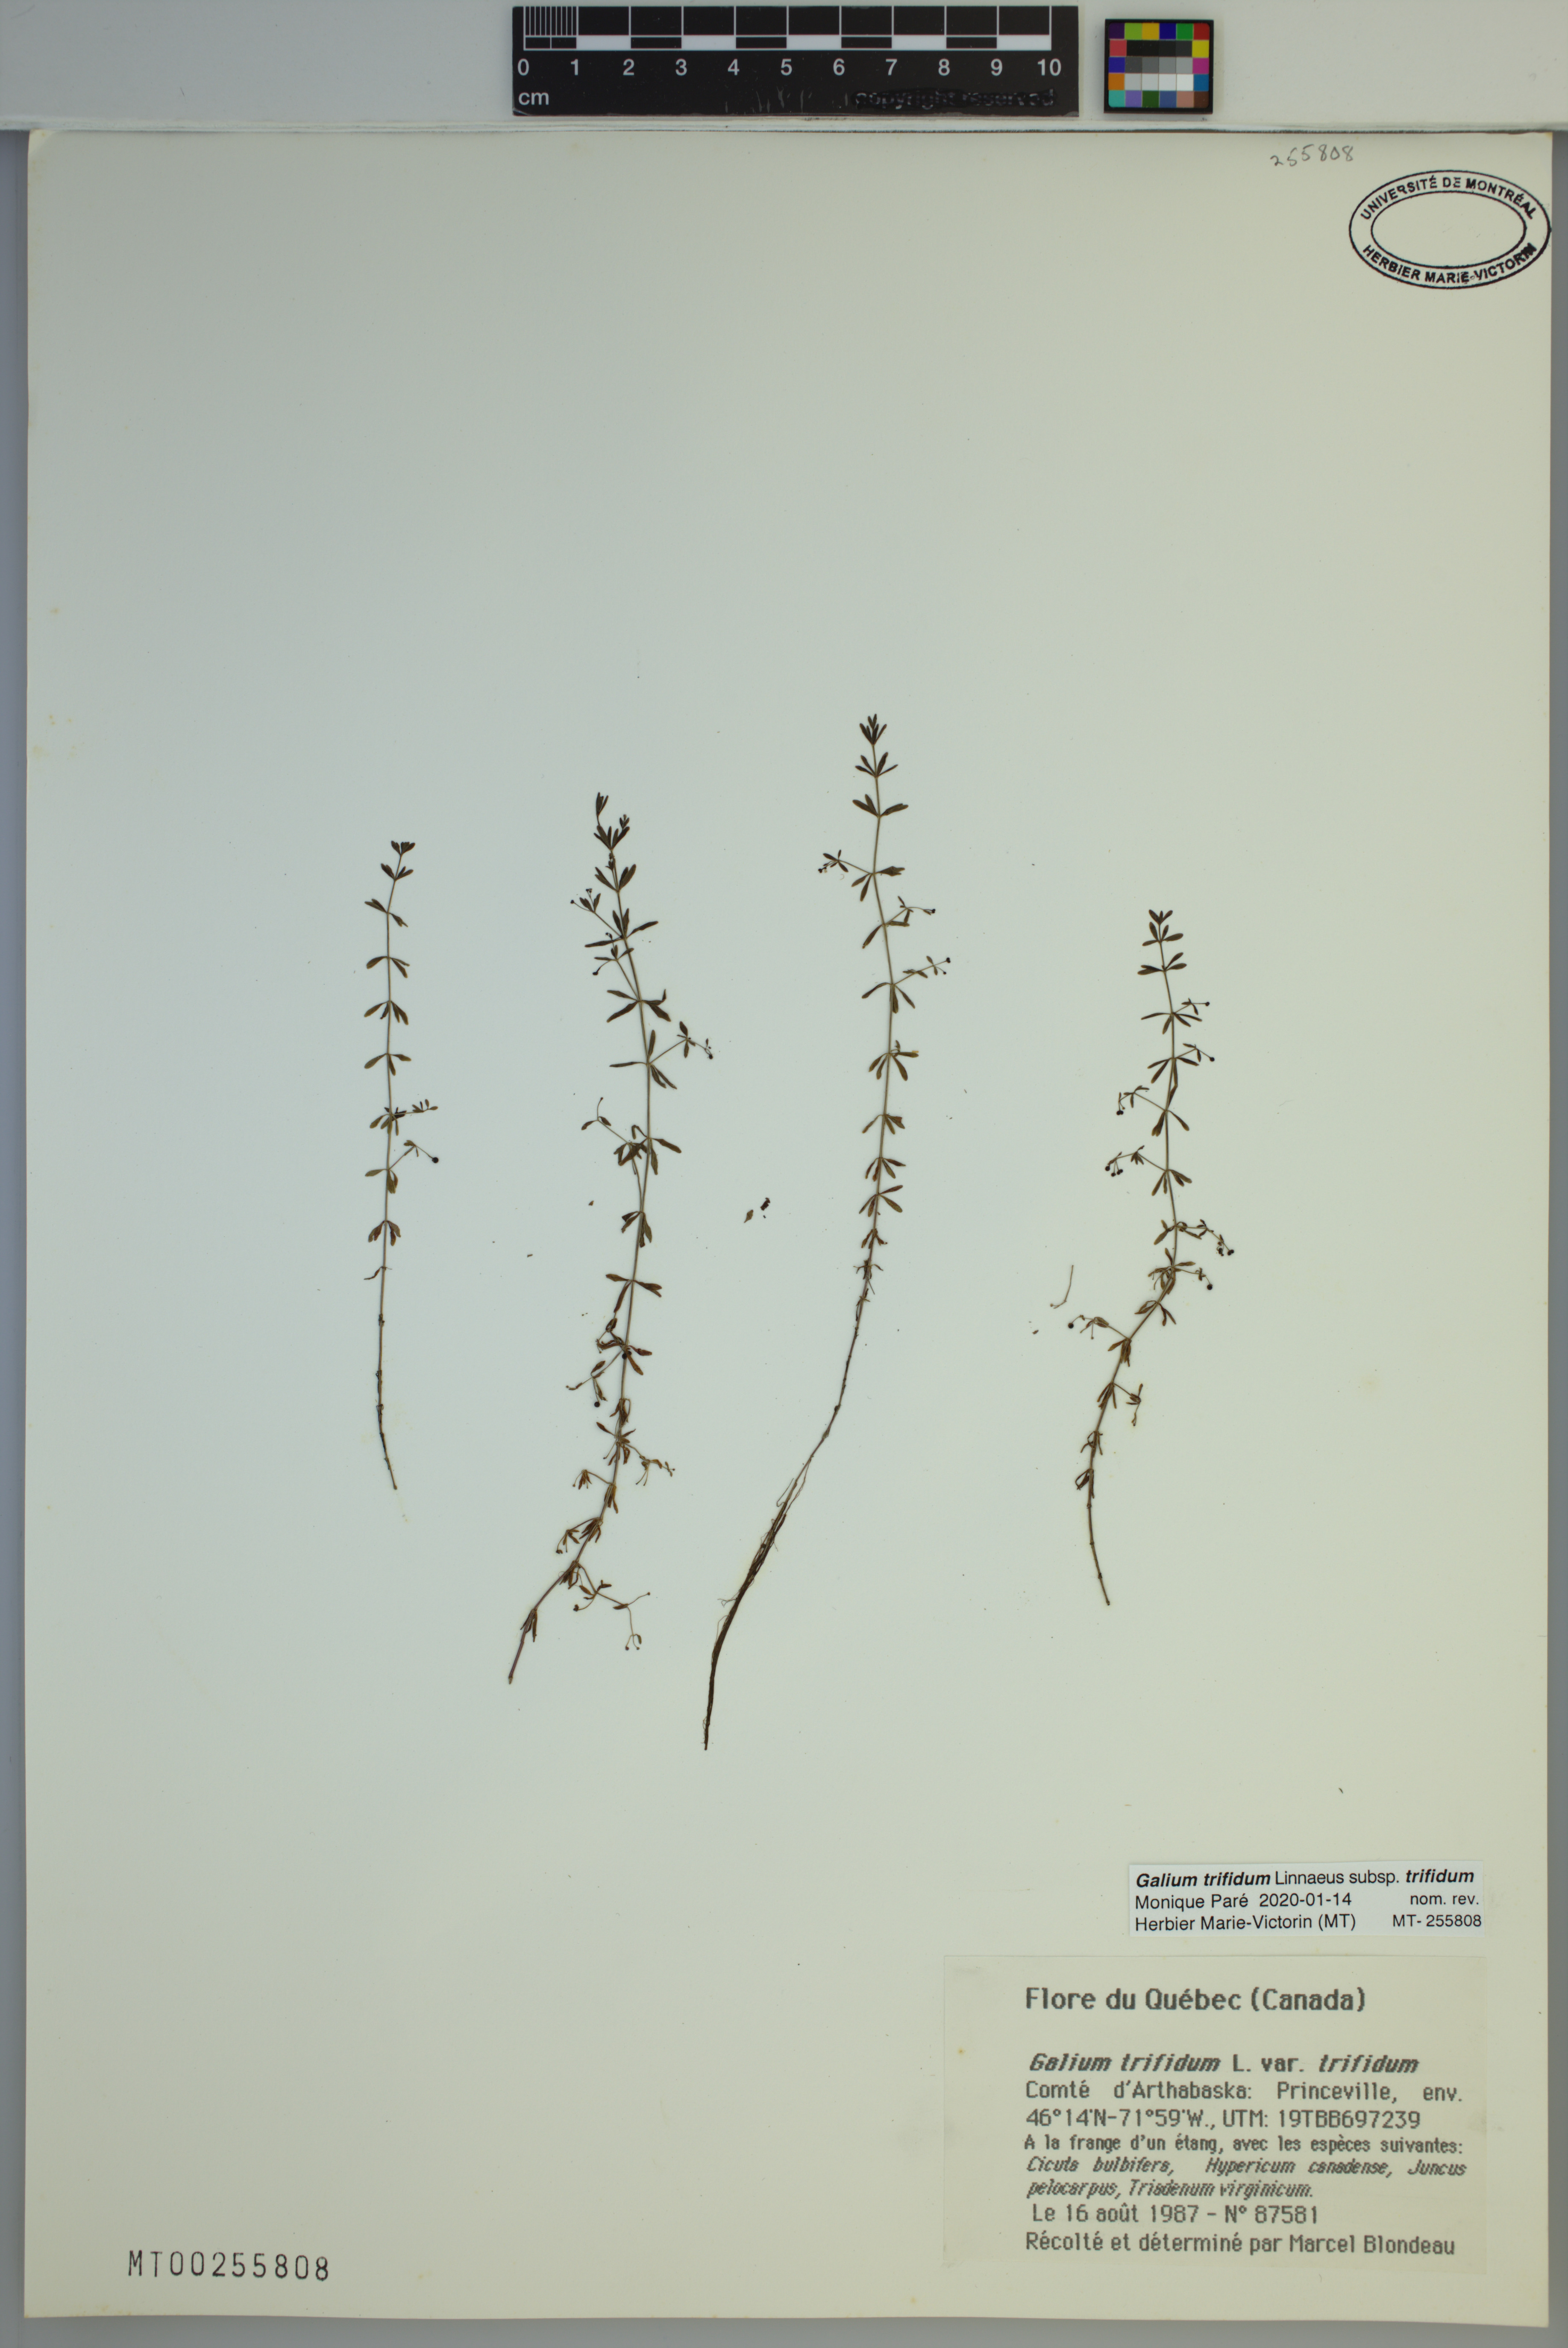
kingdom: Plantae
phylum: Tracheophyta
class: Magnoliopsida
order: Gentianales
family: Rubiaceae
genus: Galium
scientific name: Galium trifidum
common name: Small bedstraw
